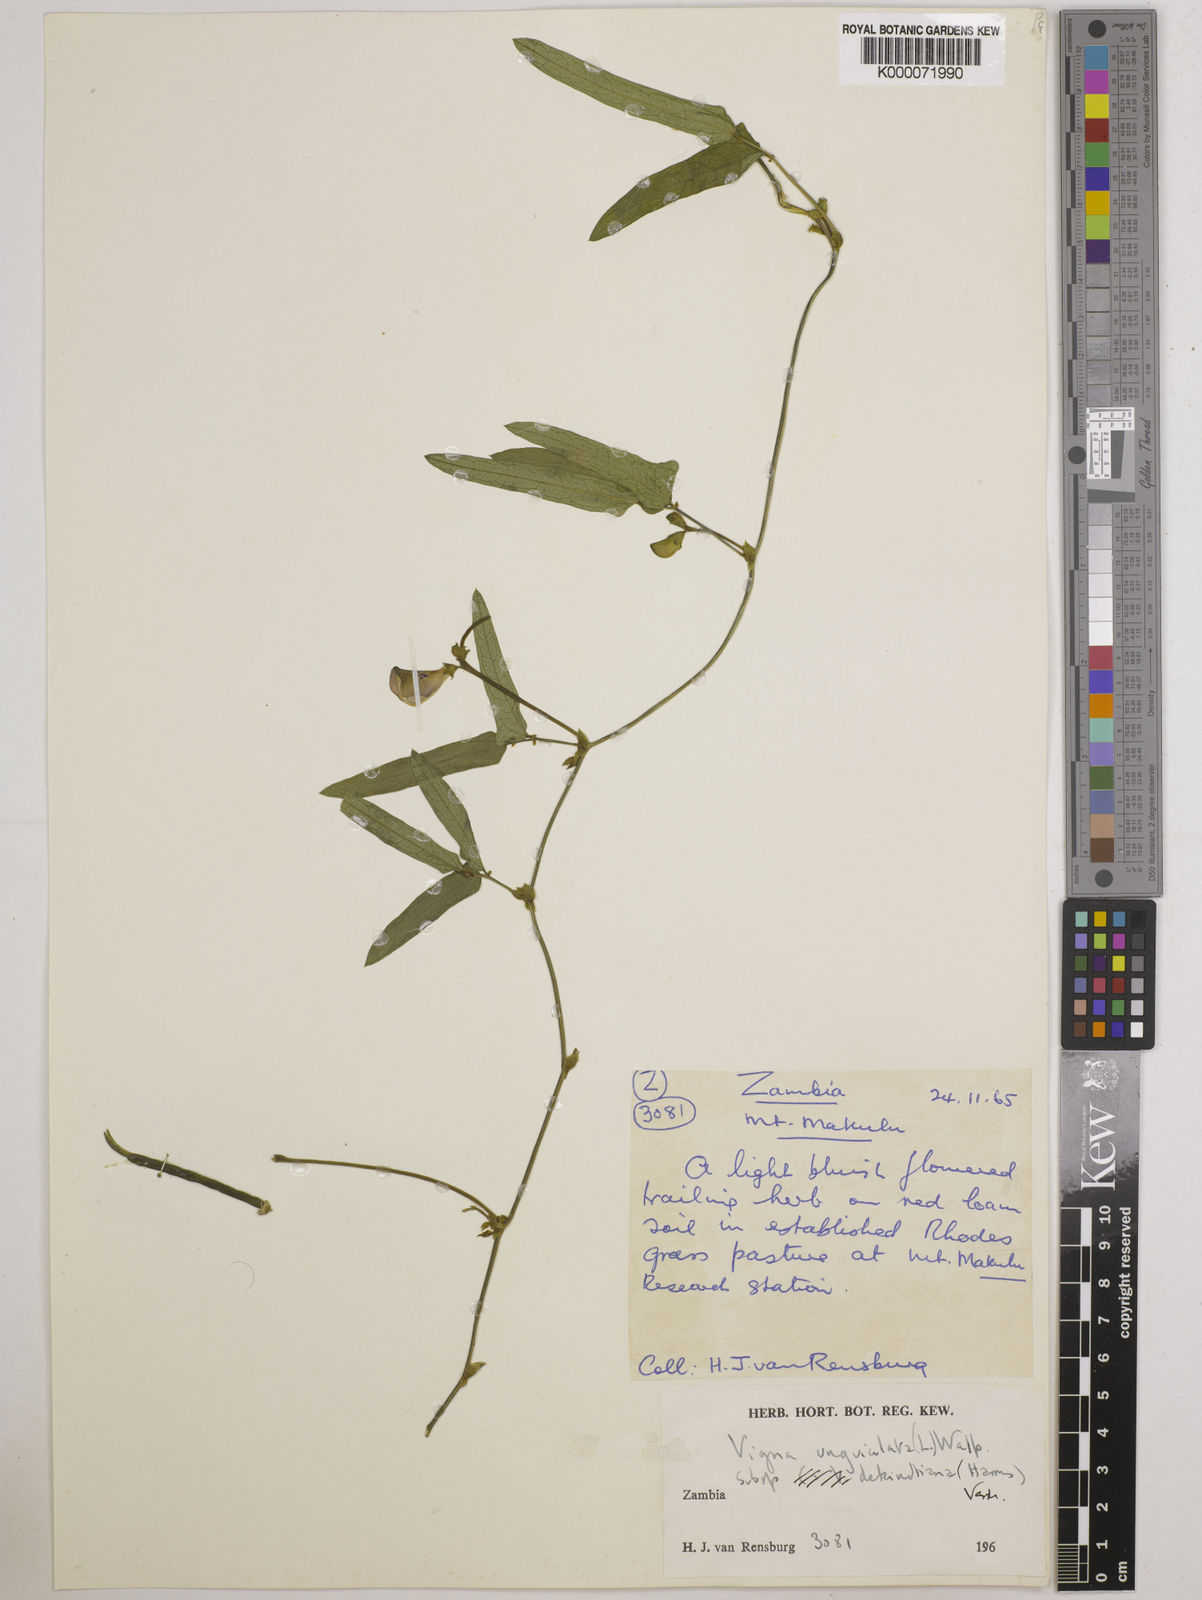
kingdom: Plantae
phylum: Tracheophyta
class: Magnoliopsida
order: Fabales
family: Fabaceae
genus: Vigna
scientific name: Vigna unguiculata
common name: Cowpea
